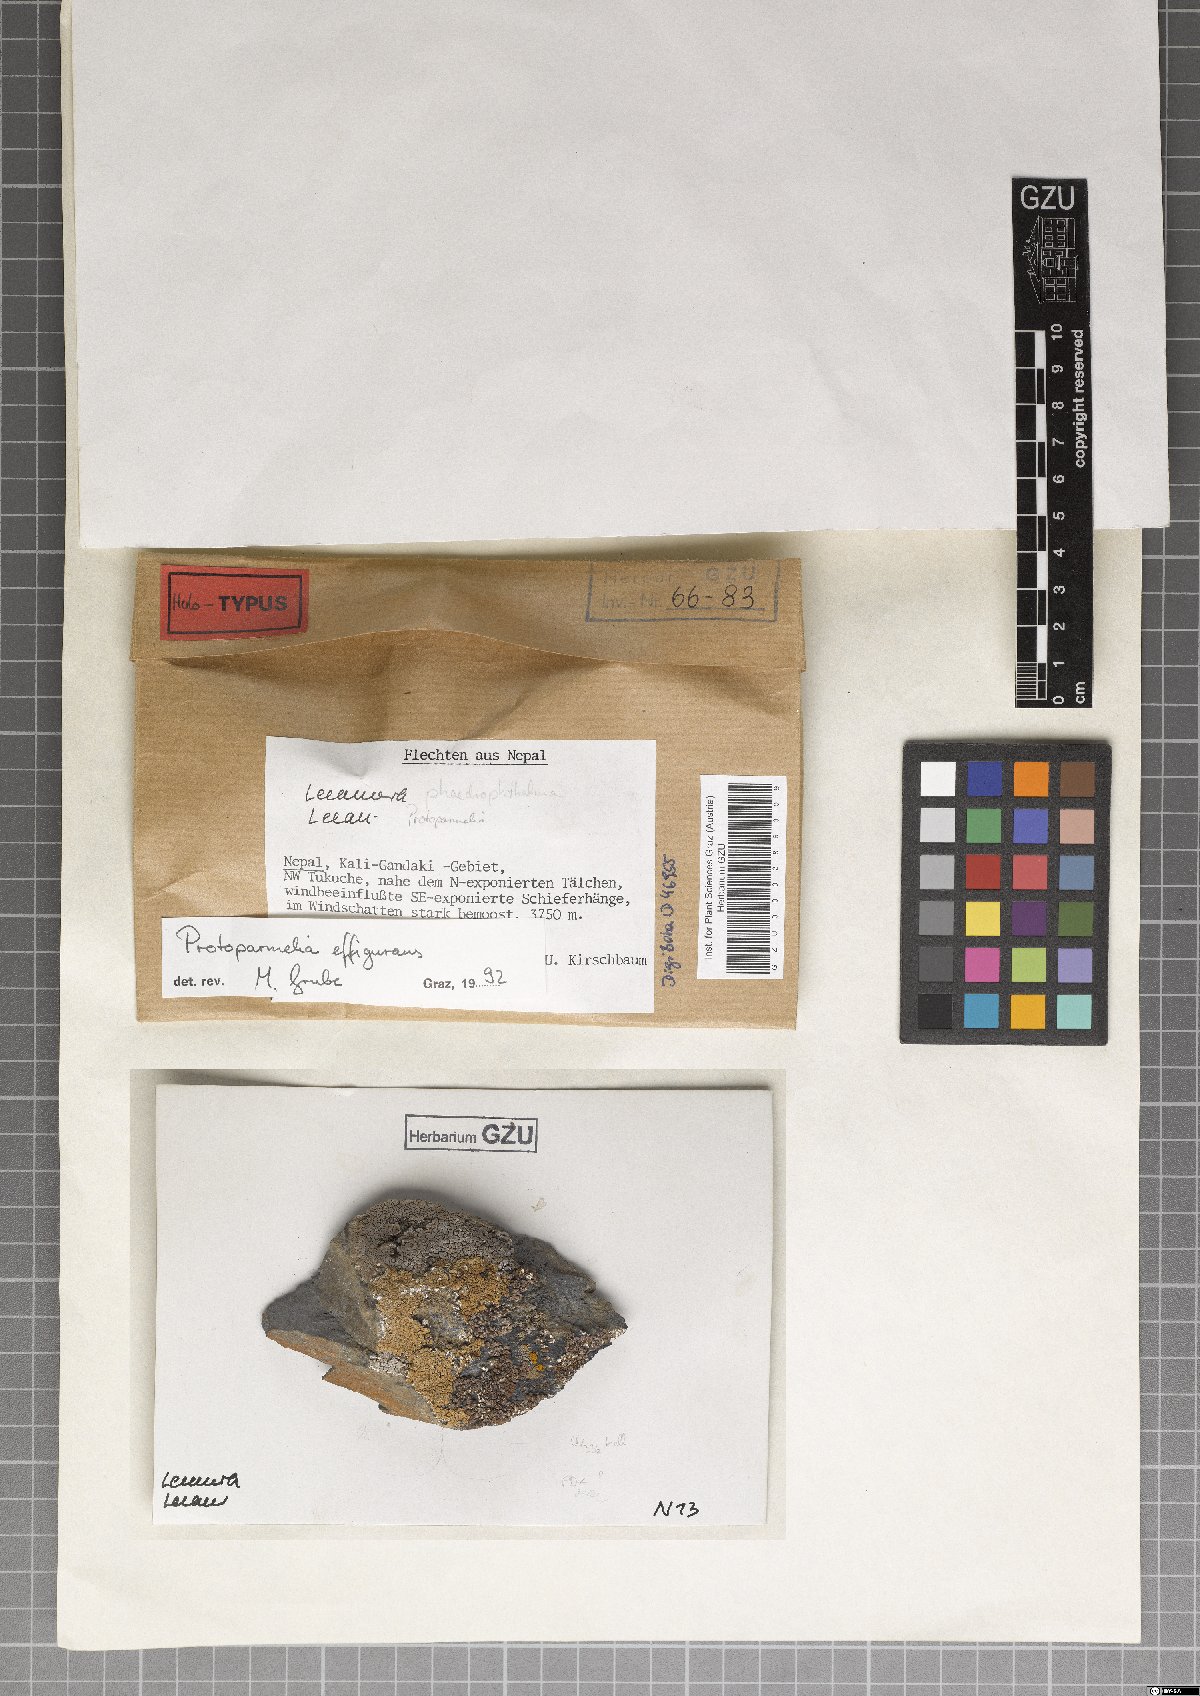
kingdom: Fungi
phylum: Ascomycota
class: Lecanoromycetes
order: Lecanorales
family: Parmeliaceae
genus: Protoparmelia
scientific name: Protoparmelia effigurans
